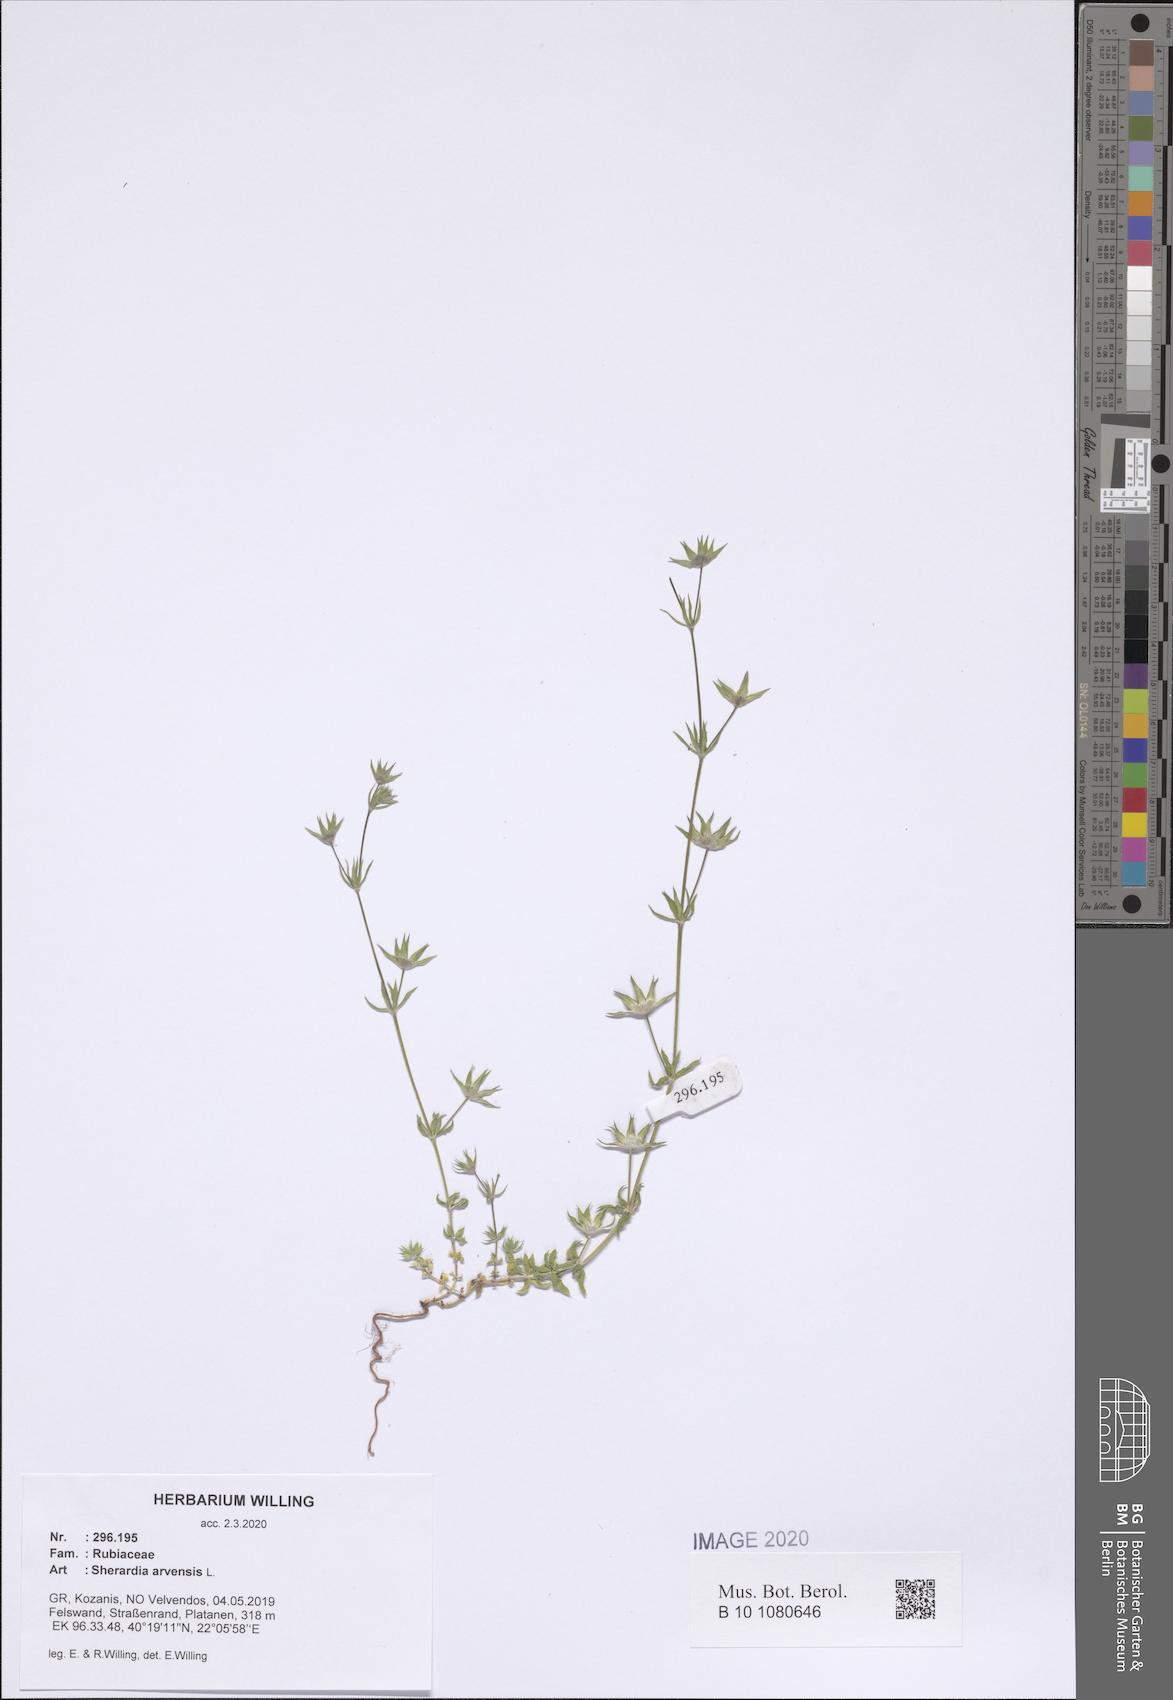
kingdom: Plantae
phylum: Tracheophyta
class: Magnoliopsida
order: Gentianales
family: Rubiaceae
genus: Sherardia
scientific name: Sherardia arvensis
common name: Field madder
